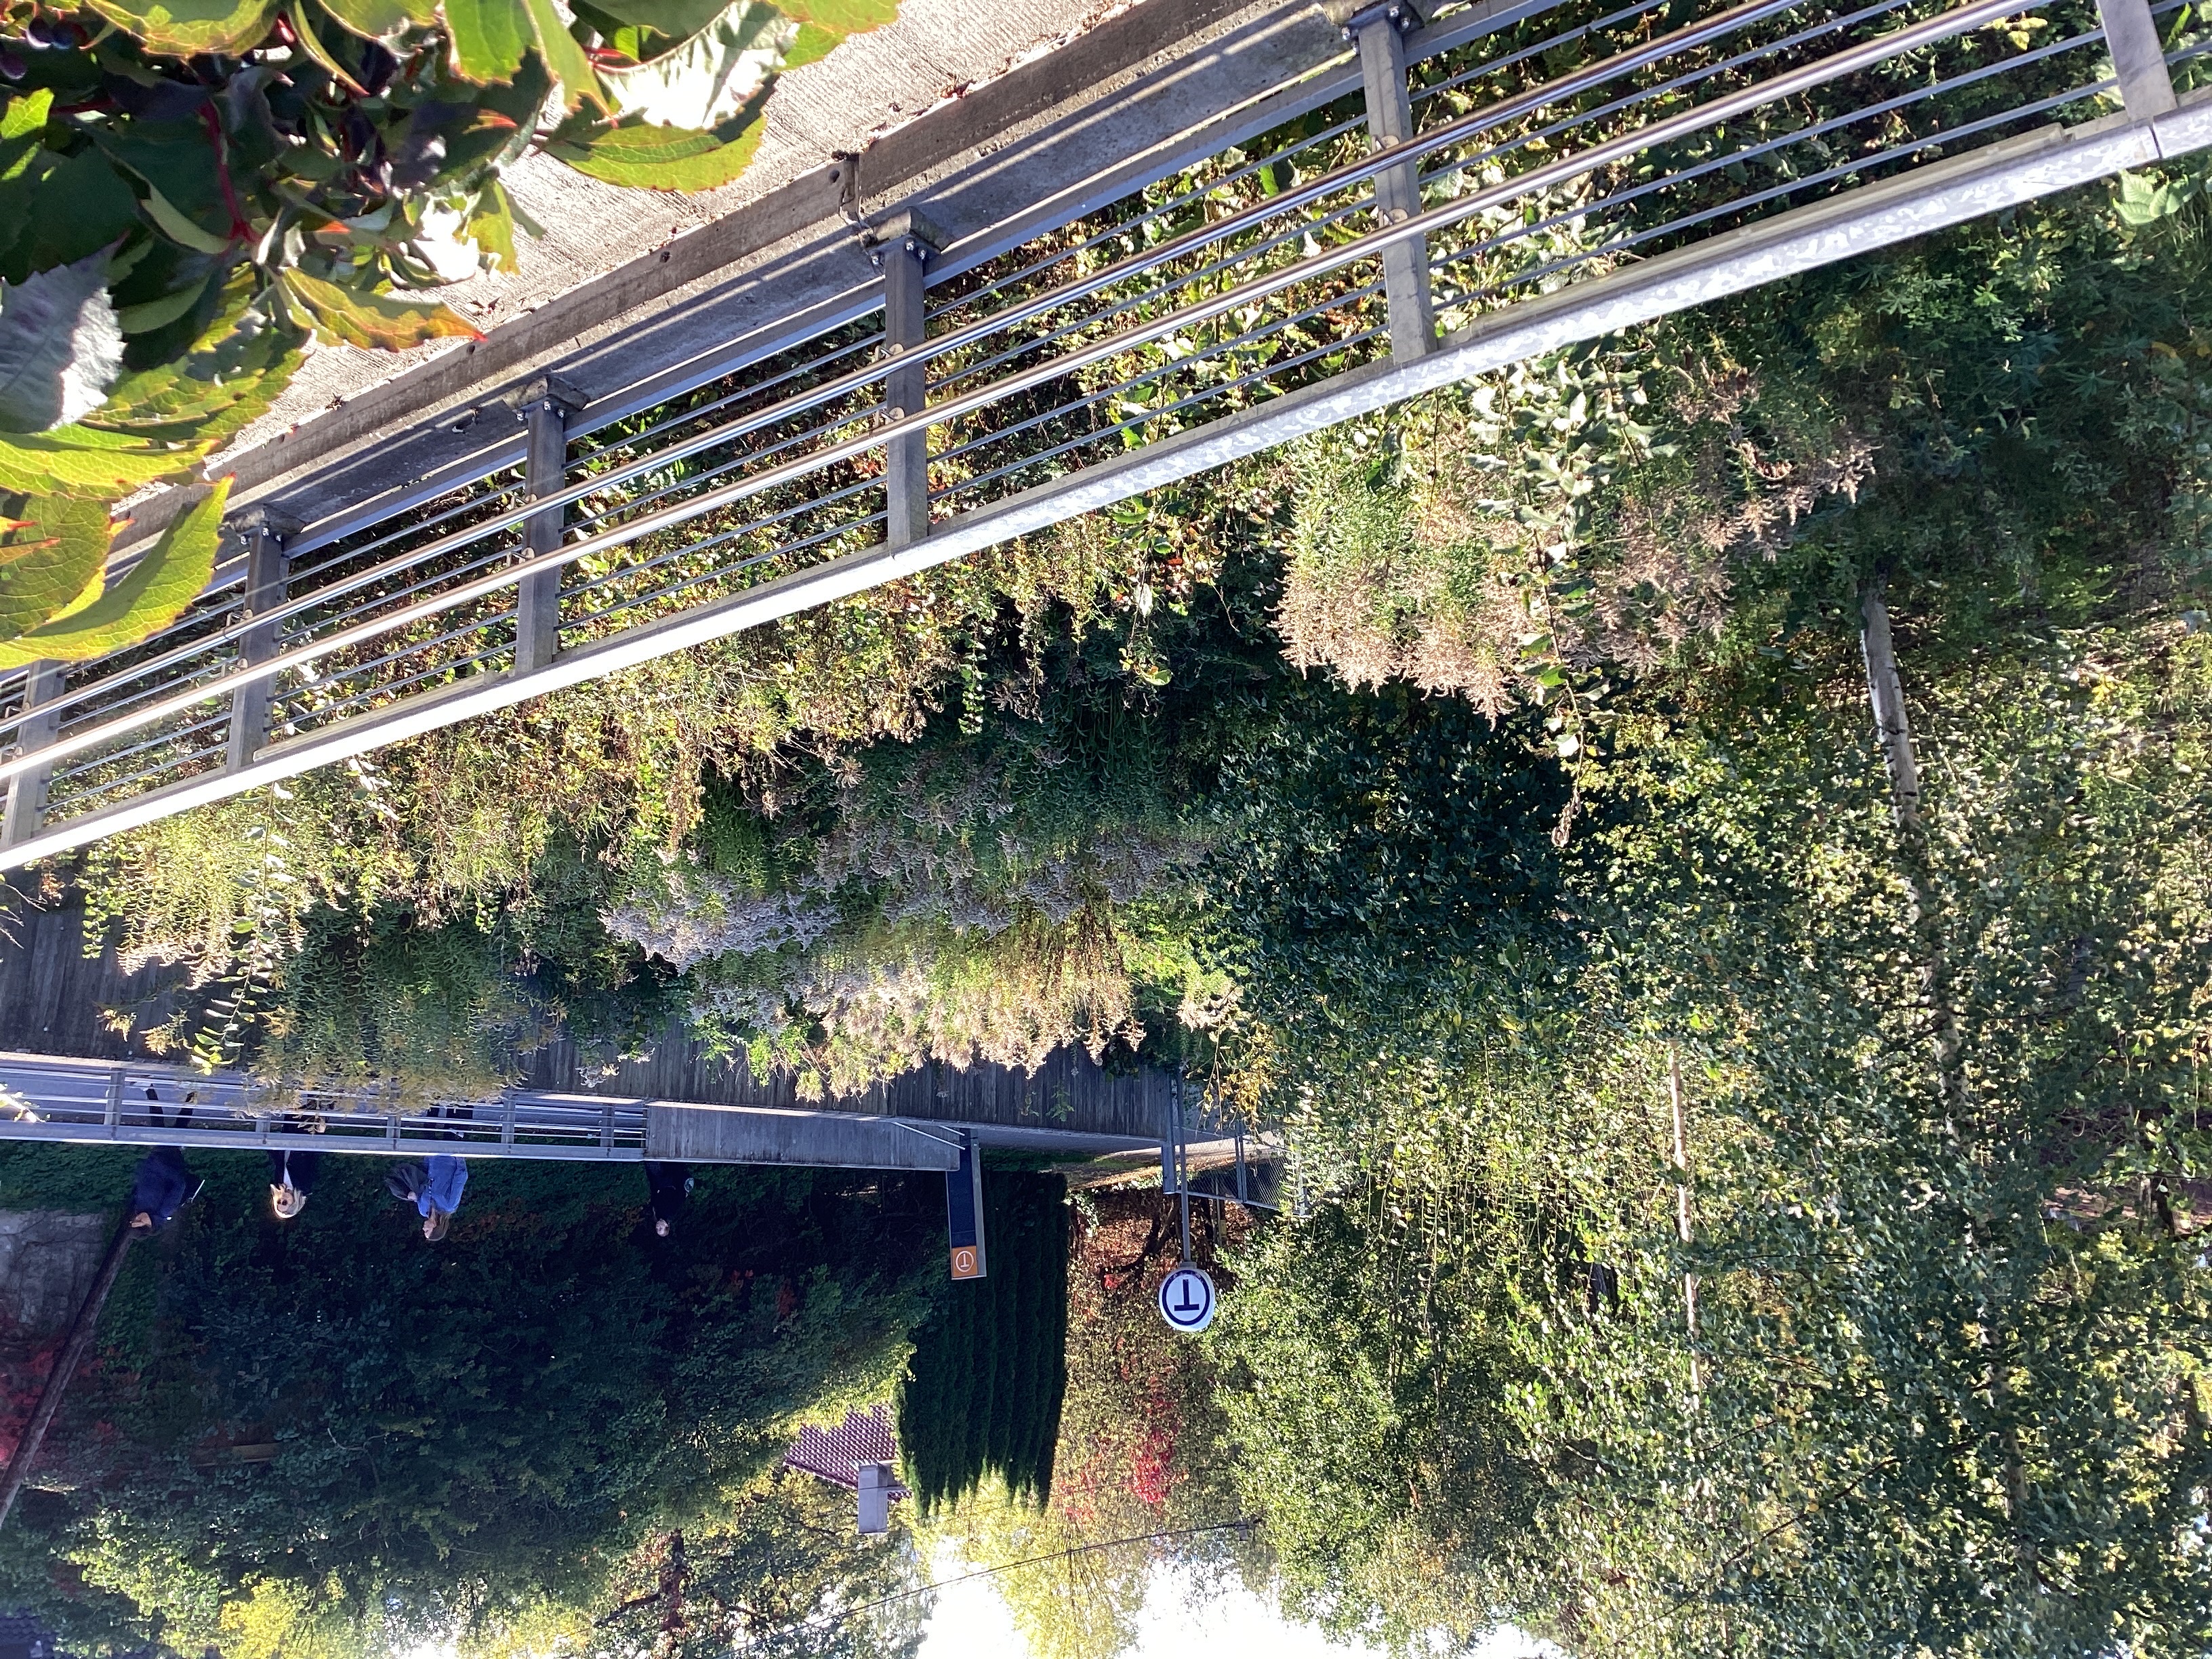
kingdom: Plantae
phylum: Tracheophyta
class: Magnoliopsida
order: Asterales
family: Asteraceae
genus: Solidago
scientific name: Solidago canadensis
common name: kanadagullris
